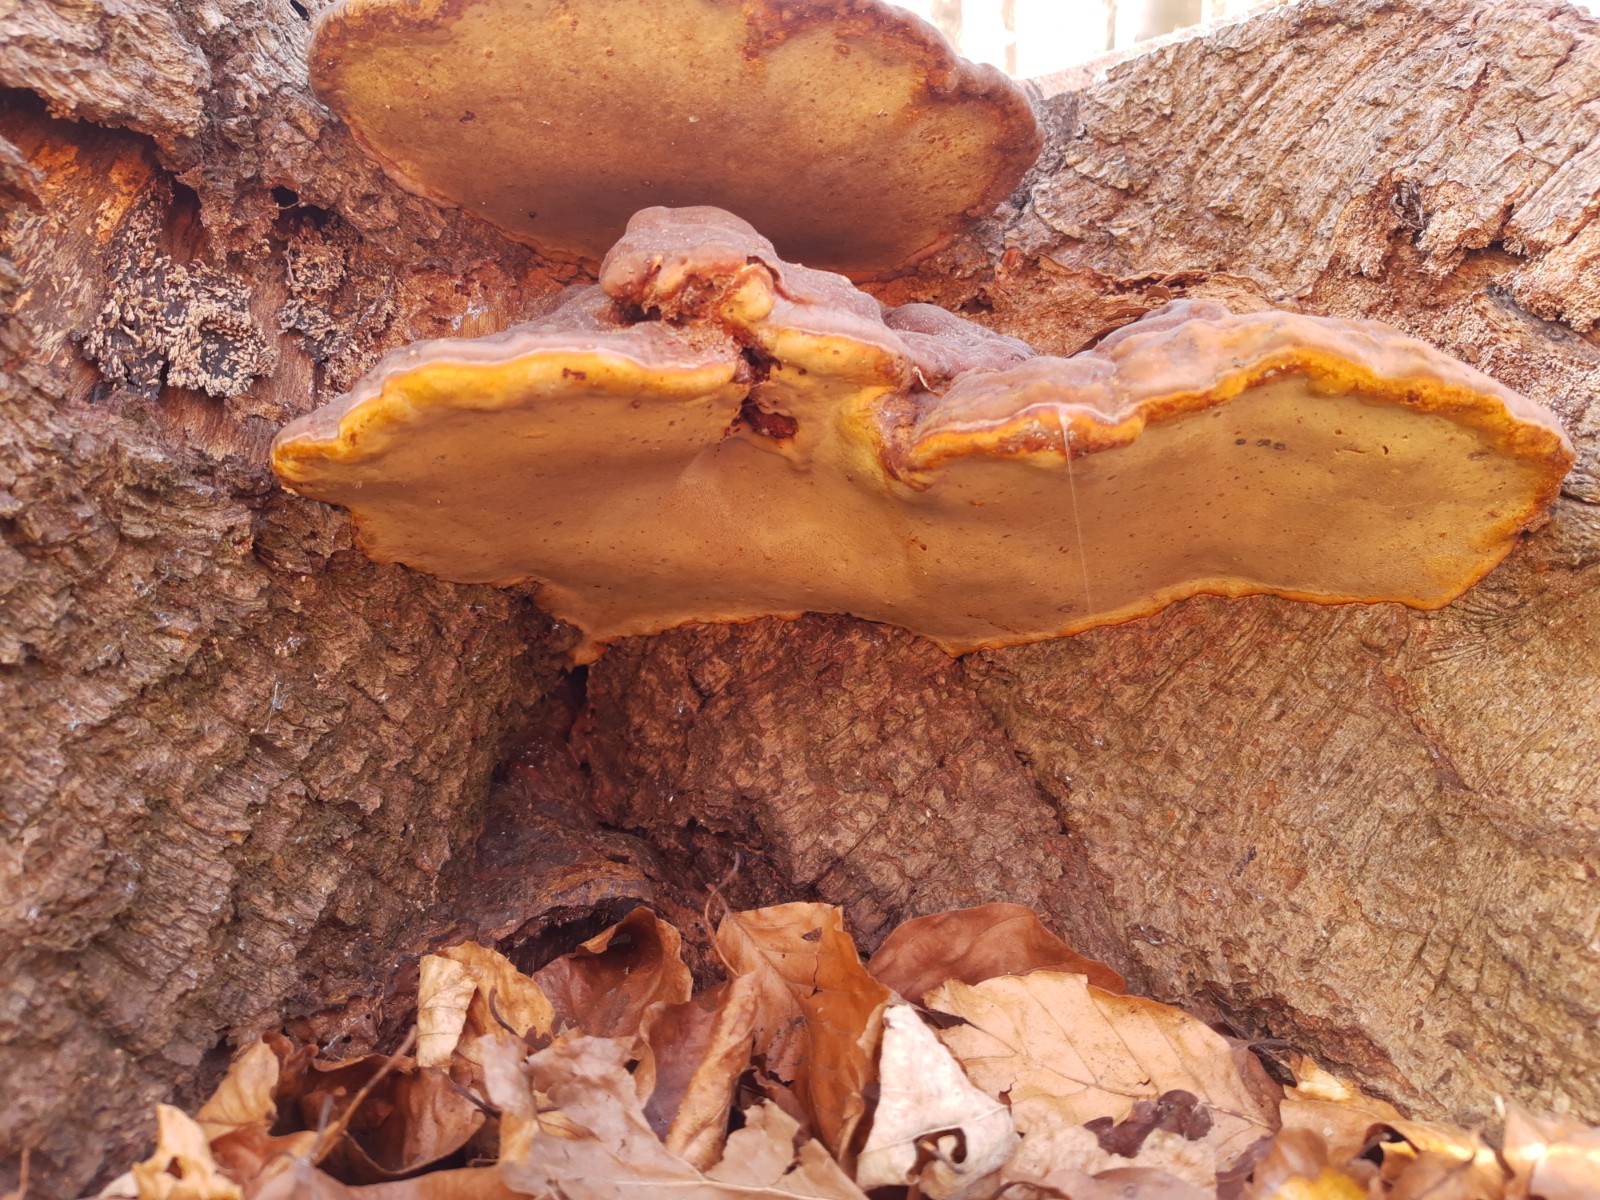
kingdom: Fungi
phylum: Basidiomycota
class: Agaricomycetes
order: Polyporales
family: Polyporaceae
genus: Ganoderma
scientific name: Ganoderma pfeifferi
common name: kobberrød lakporesvamp
